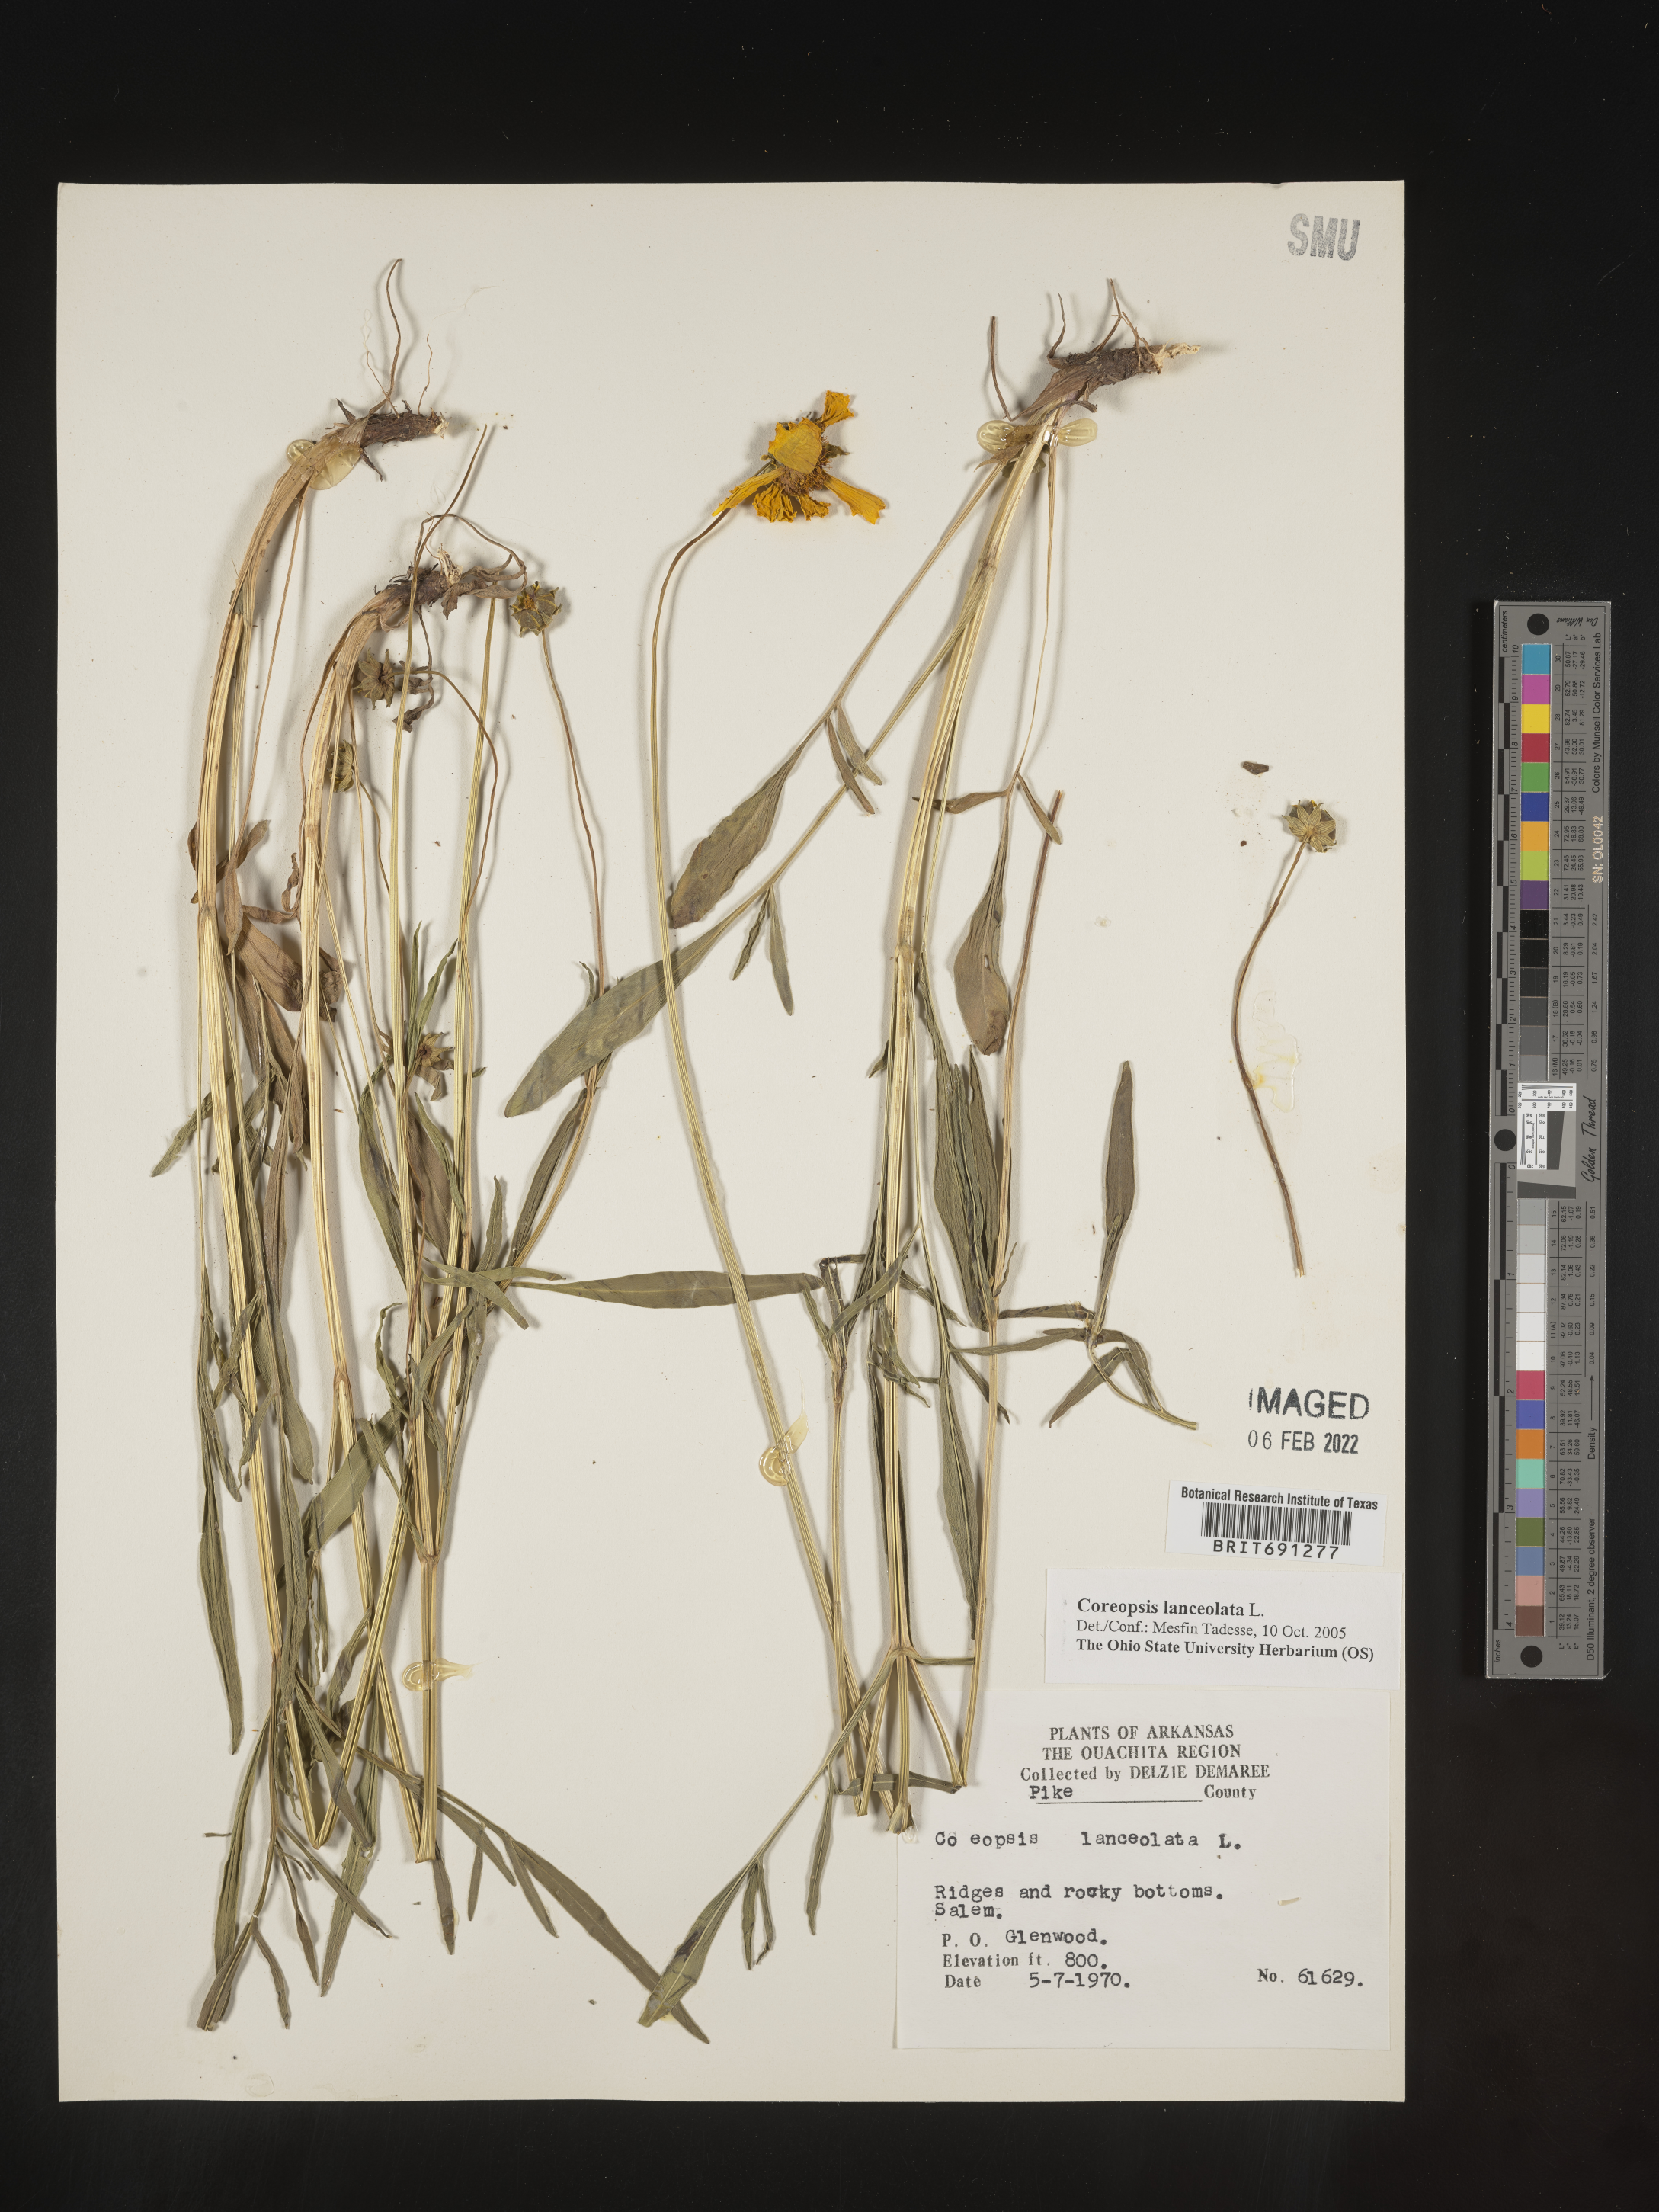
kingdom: Plantae
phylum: Tracheophyta
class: Magnoliopsida
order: Asterales
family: Asteraceae
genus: Coreopsis
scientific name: Coreopsis lanceolata
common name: Garden coreopsis
